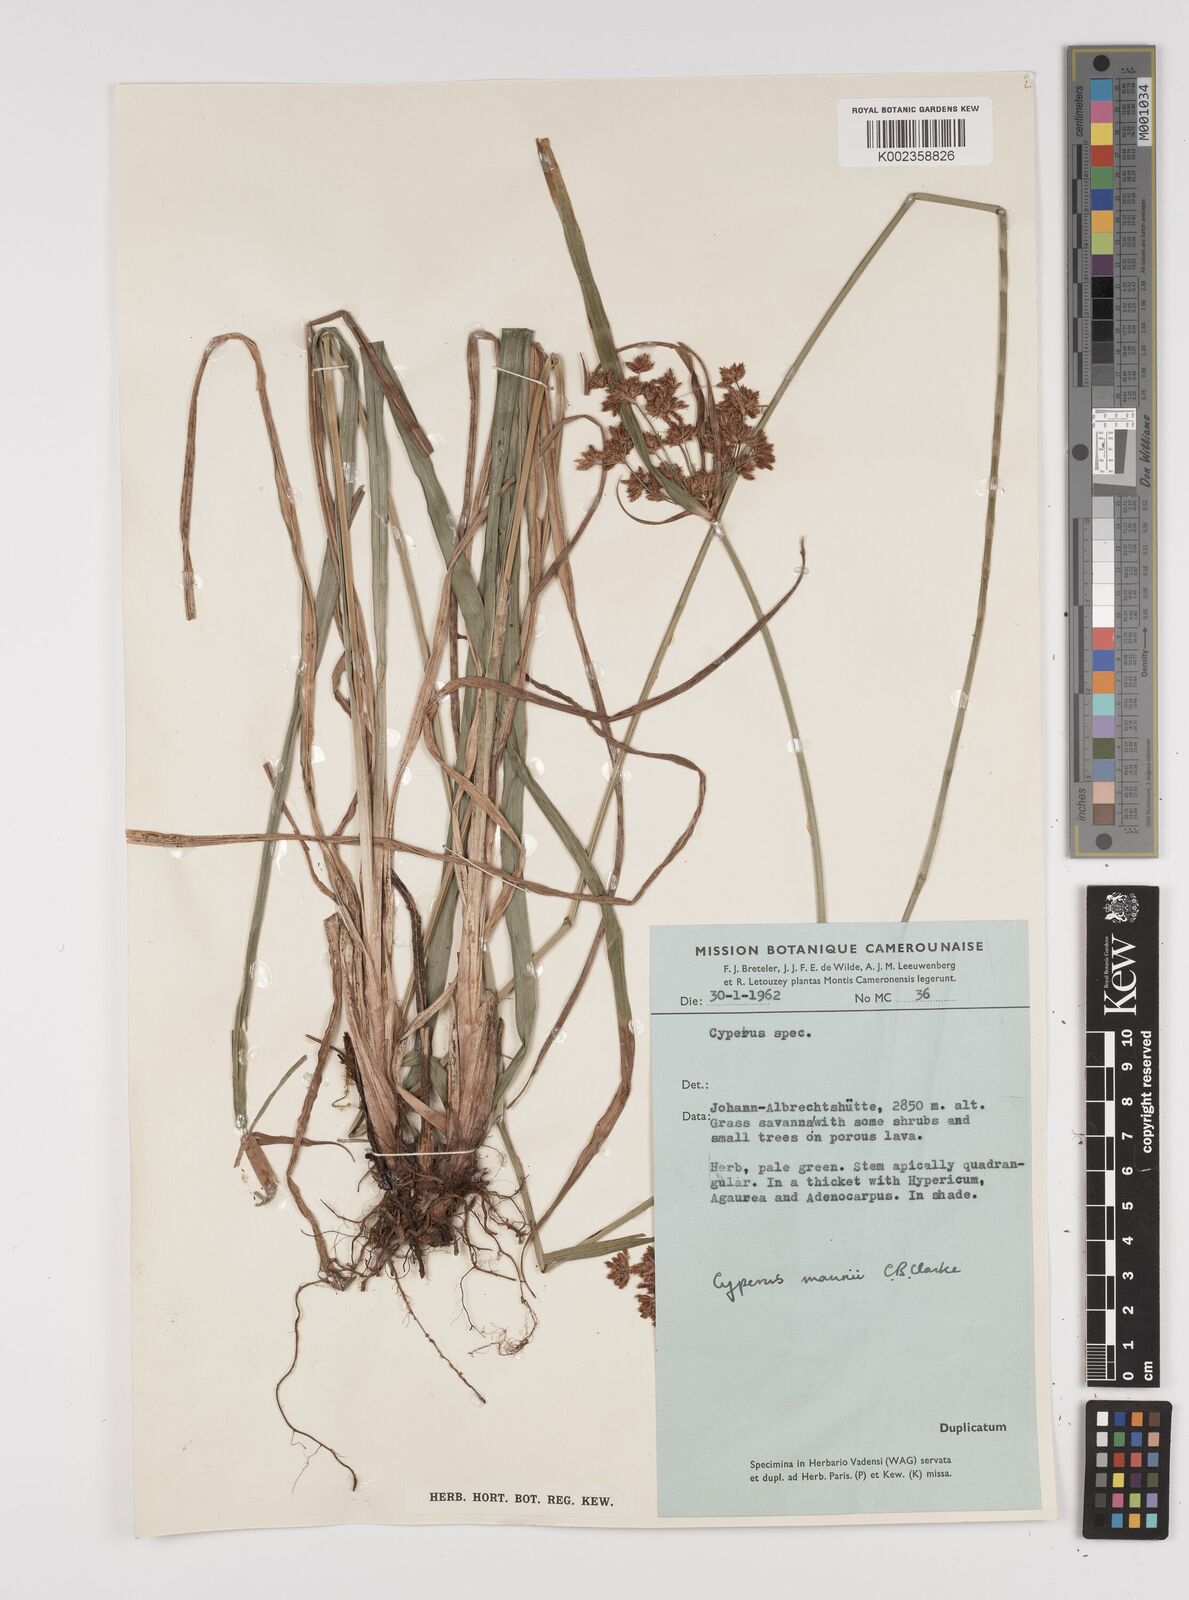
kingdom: Plantae
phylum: Tracheophyta
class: Liliopsida
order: Poales
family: Cyperaceae
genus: Cyperus
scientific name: Cyperus baronii
